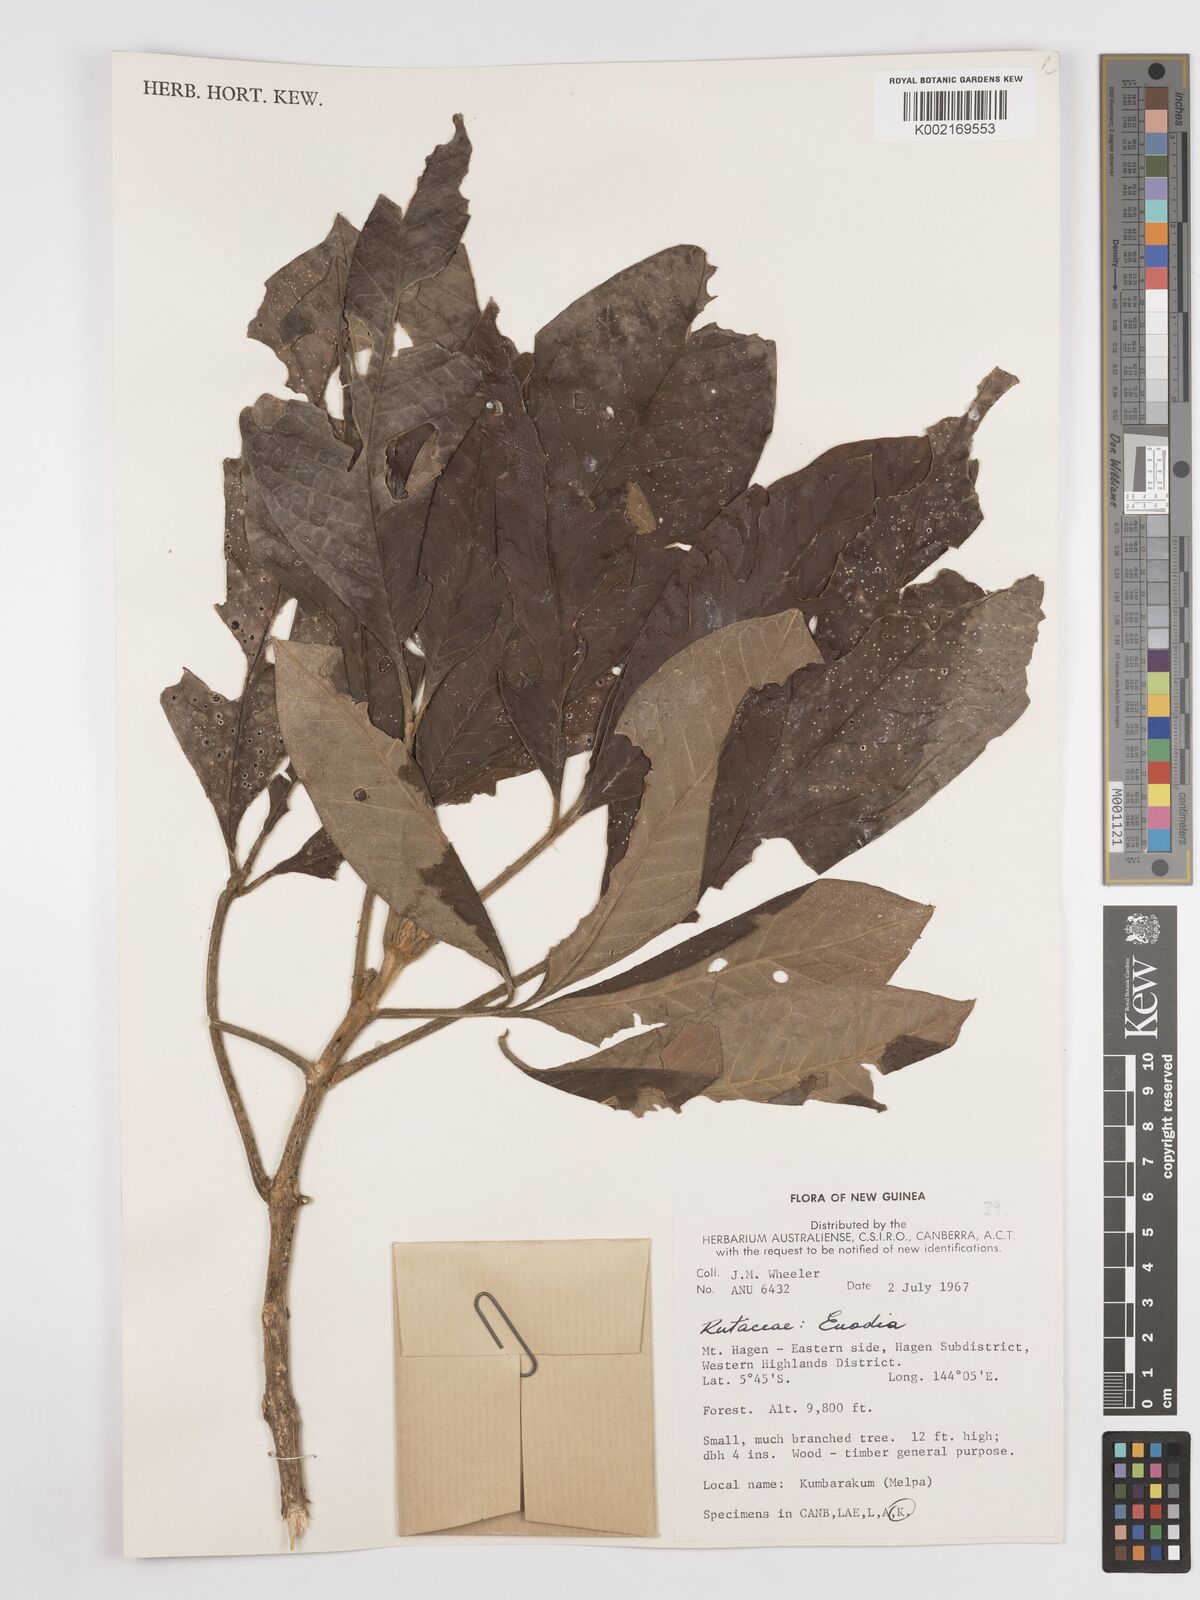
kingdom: Plantae
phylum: Tracheophyta
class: Magnoliopsida
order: Sapindales
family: Rutaceae
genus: Euodia
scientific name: Euodia
